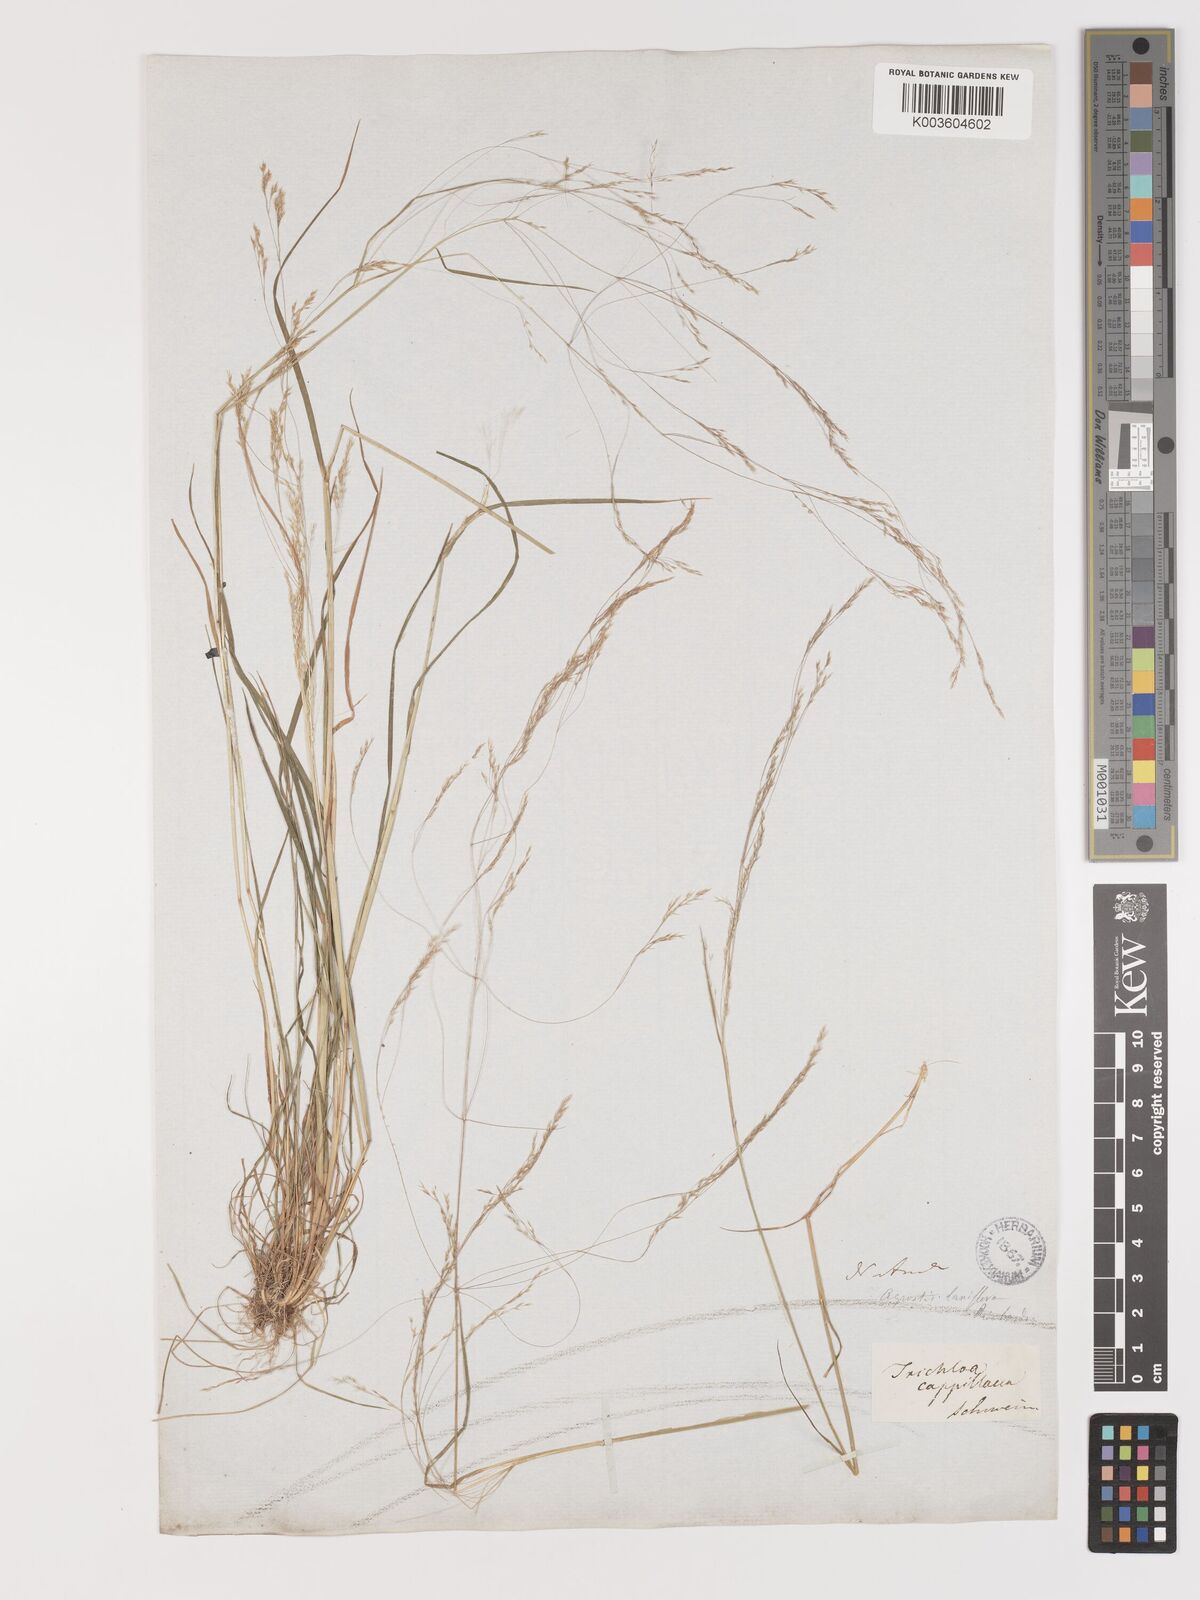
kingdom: Plantae
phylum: Tracheophyta
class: Liliopsida
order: Poales
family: Poaceae
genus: Agrostis
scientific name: Agrostis hyemalis
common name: Small bent
